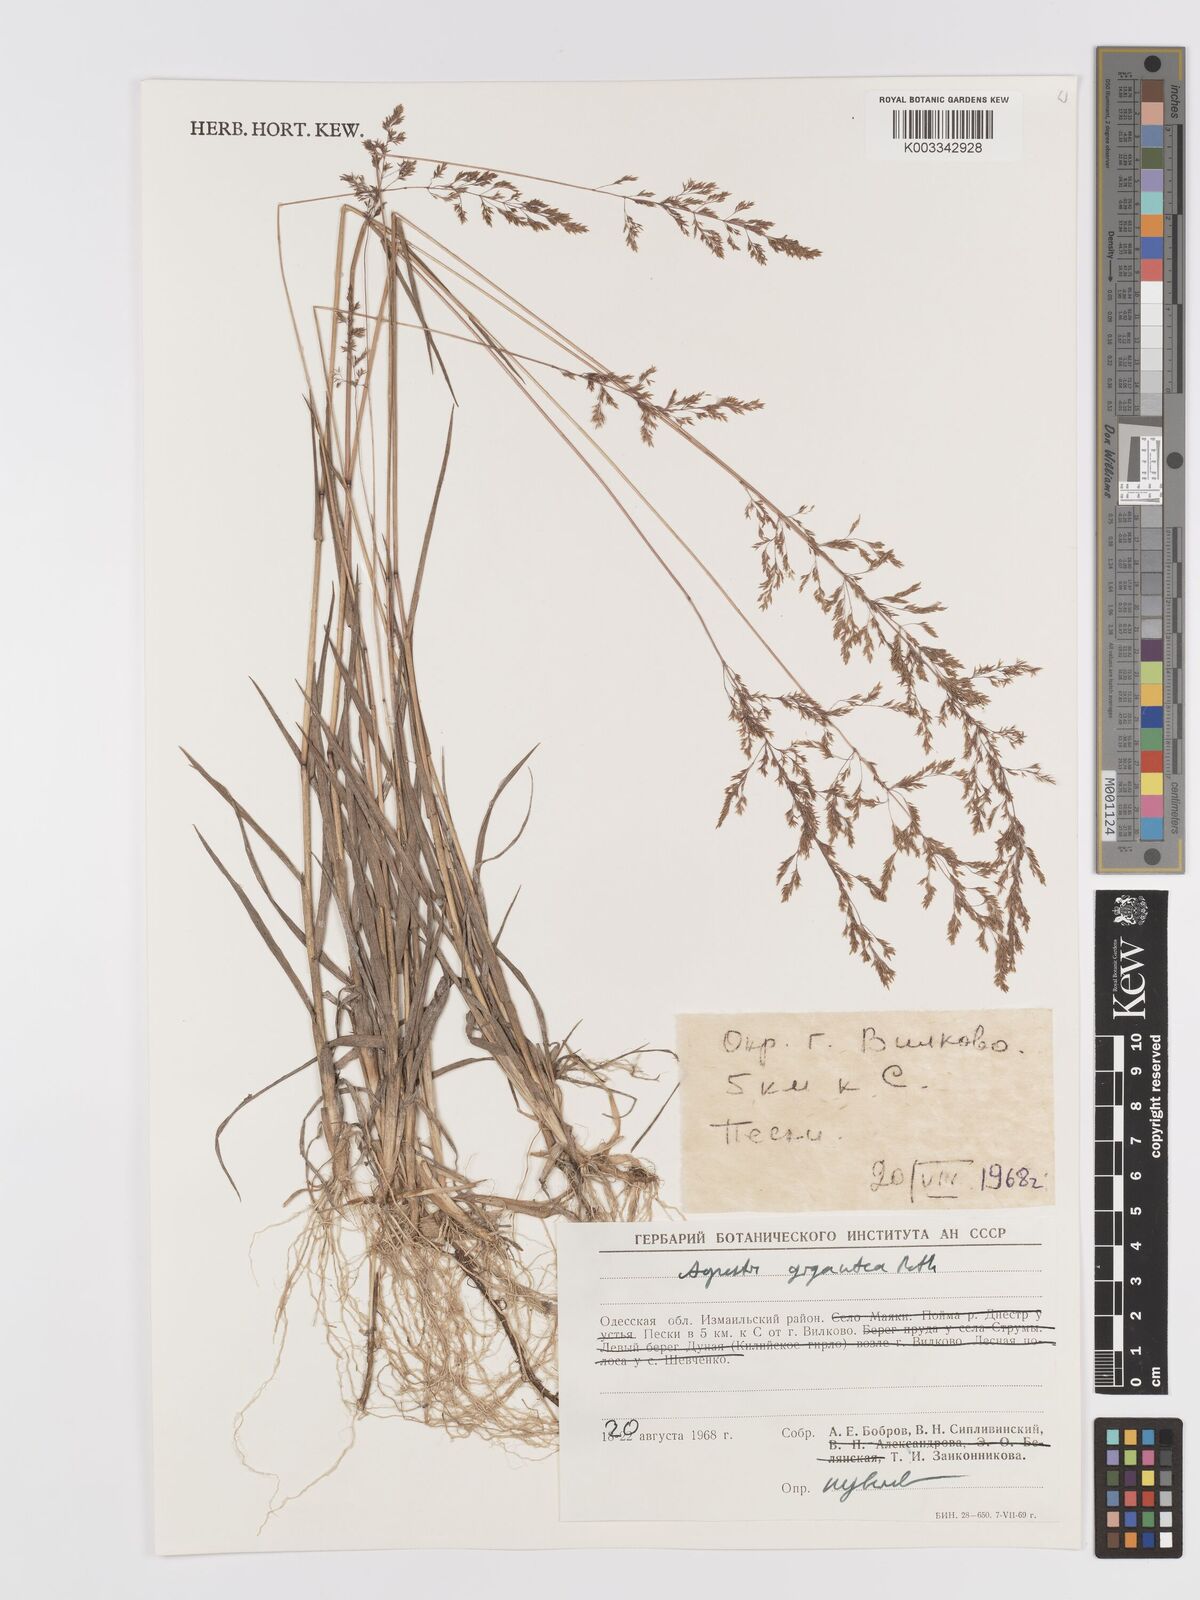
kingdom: Plantae
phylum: Tracheophyta
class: Liliopsida
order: Poales
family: Poaceae
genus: Agrostis
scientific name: Agrostis gigantea
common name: Black bent
